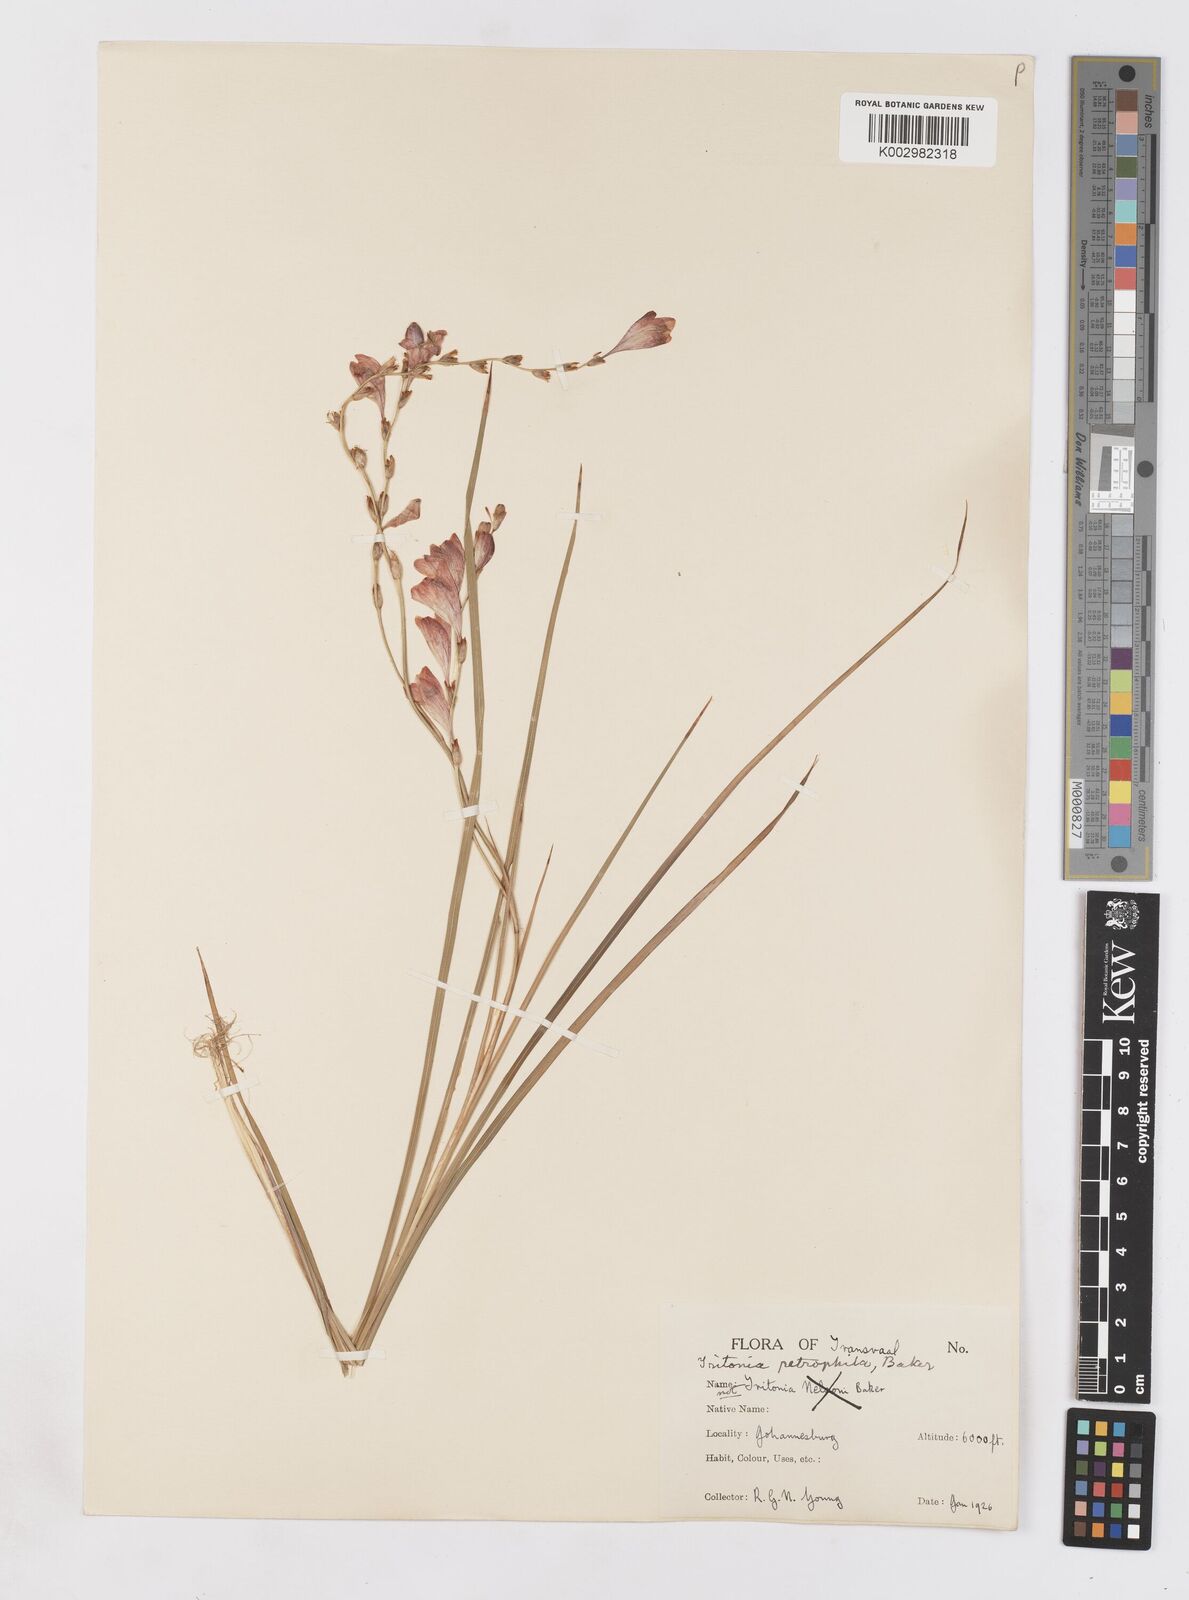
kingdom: Plantae
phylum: Tracheophyta
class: Liliopsida
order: Asparagales
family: Iridaceae
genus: Tritonia
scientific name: Tritonia nelsonii
